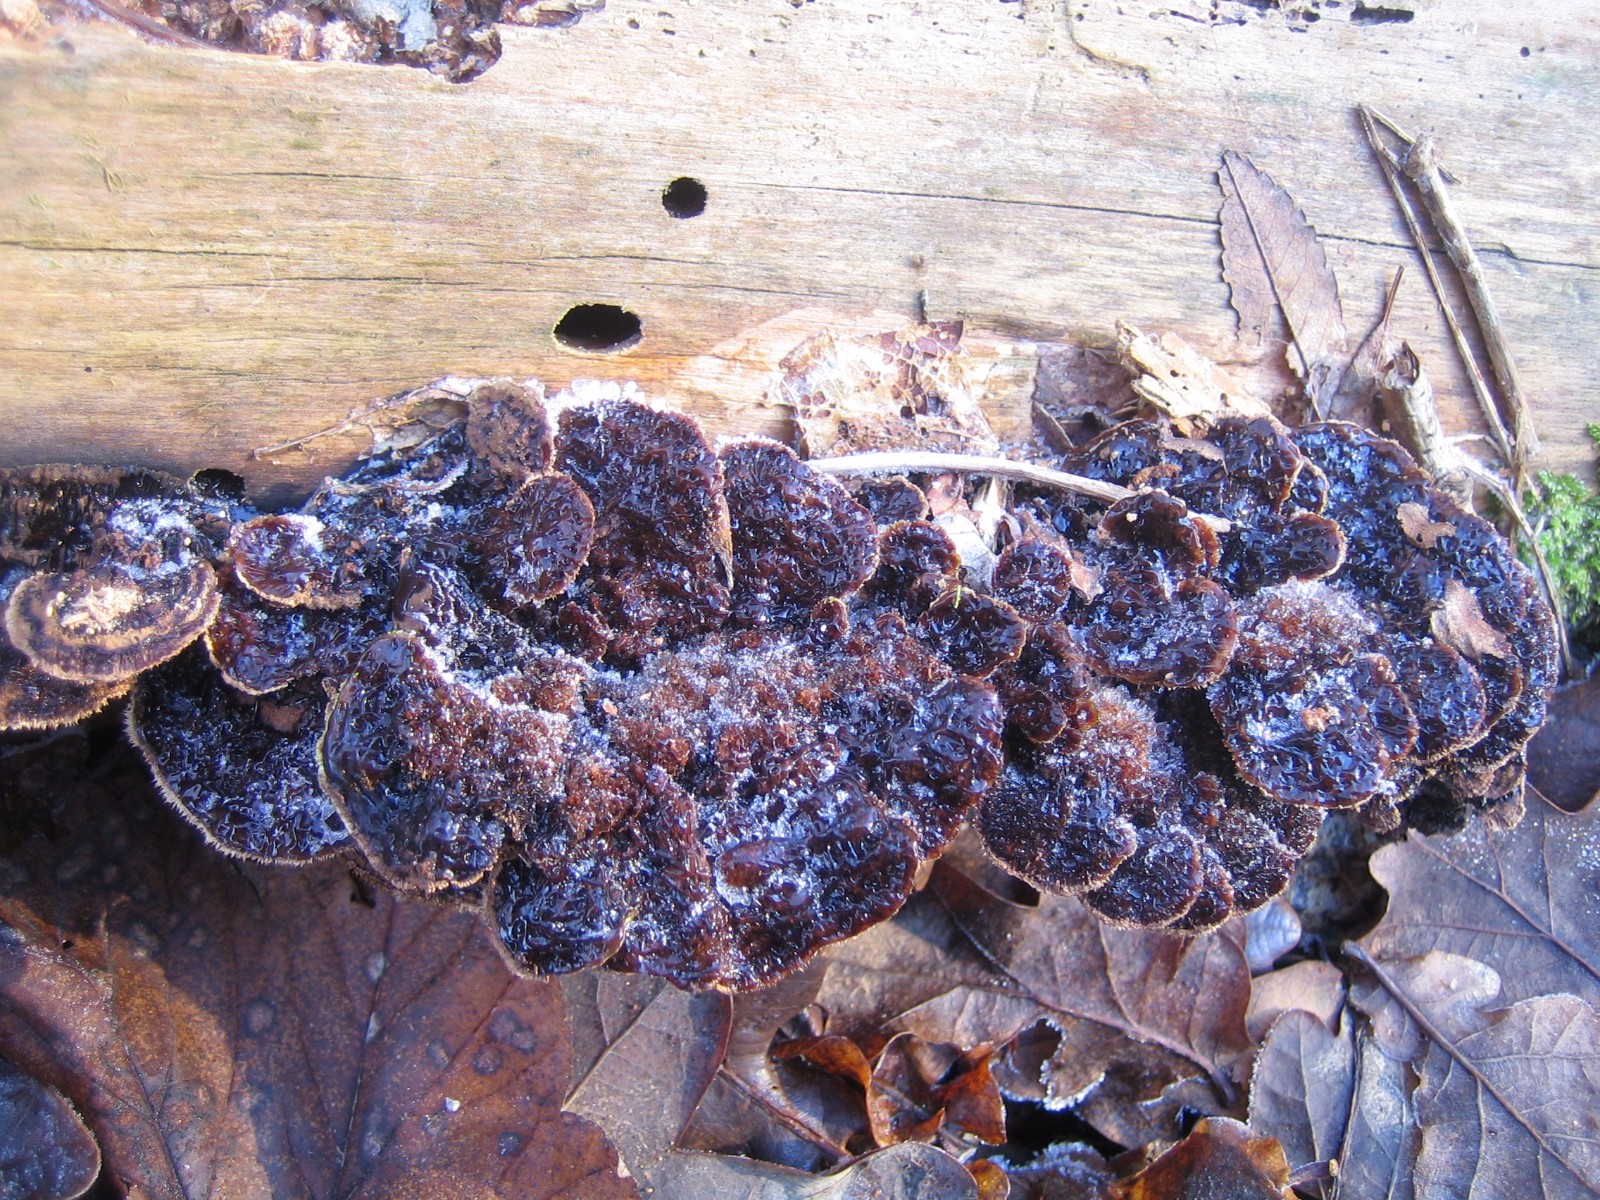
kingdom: Fungi
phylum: Basidiomycota
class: Agaricomycetes
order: Gloeophyllales
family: Gloeophyllaceae
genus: Gloeophyllum
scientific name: Gloeophyllum sepiarium
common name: fyrre-korkhat
